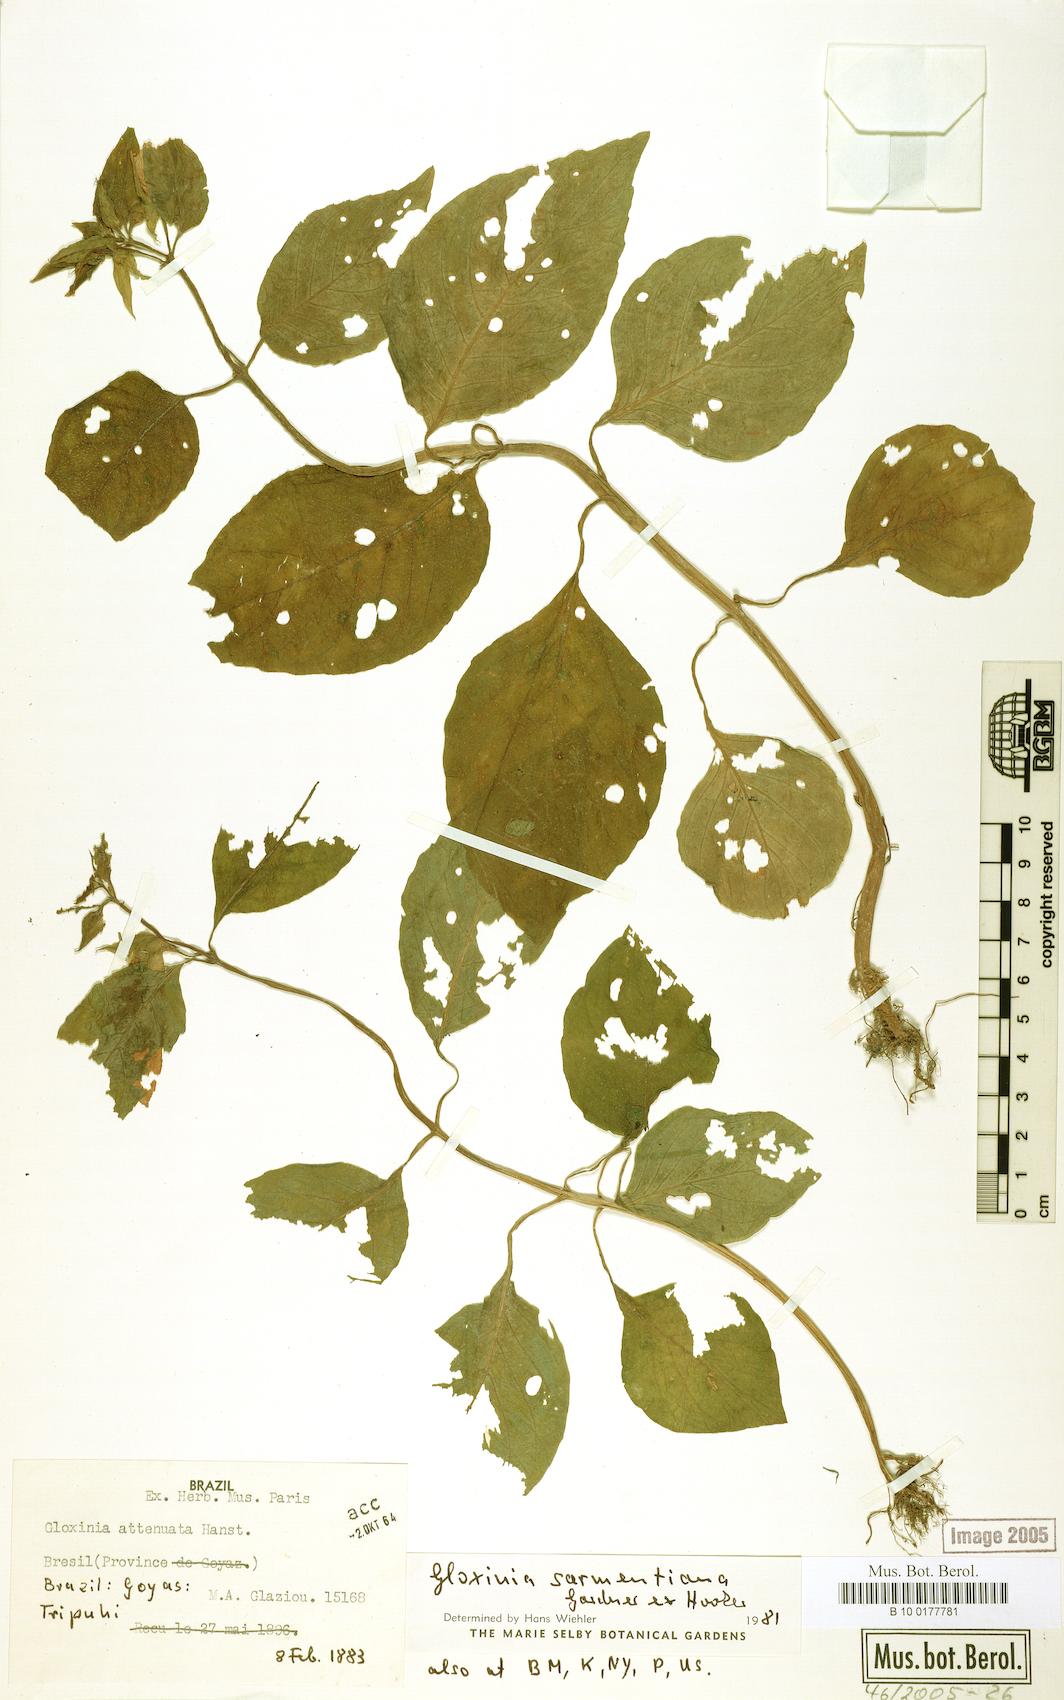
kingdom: Plantae
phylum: Tracheophyta
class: Magnoliopsida
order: Lamiales
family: Gesneriaceae
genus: Sphaerorrhiza
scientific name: Sphaerorrhiza sarmentiana
